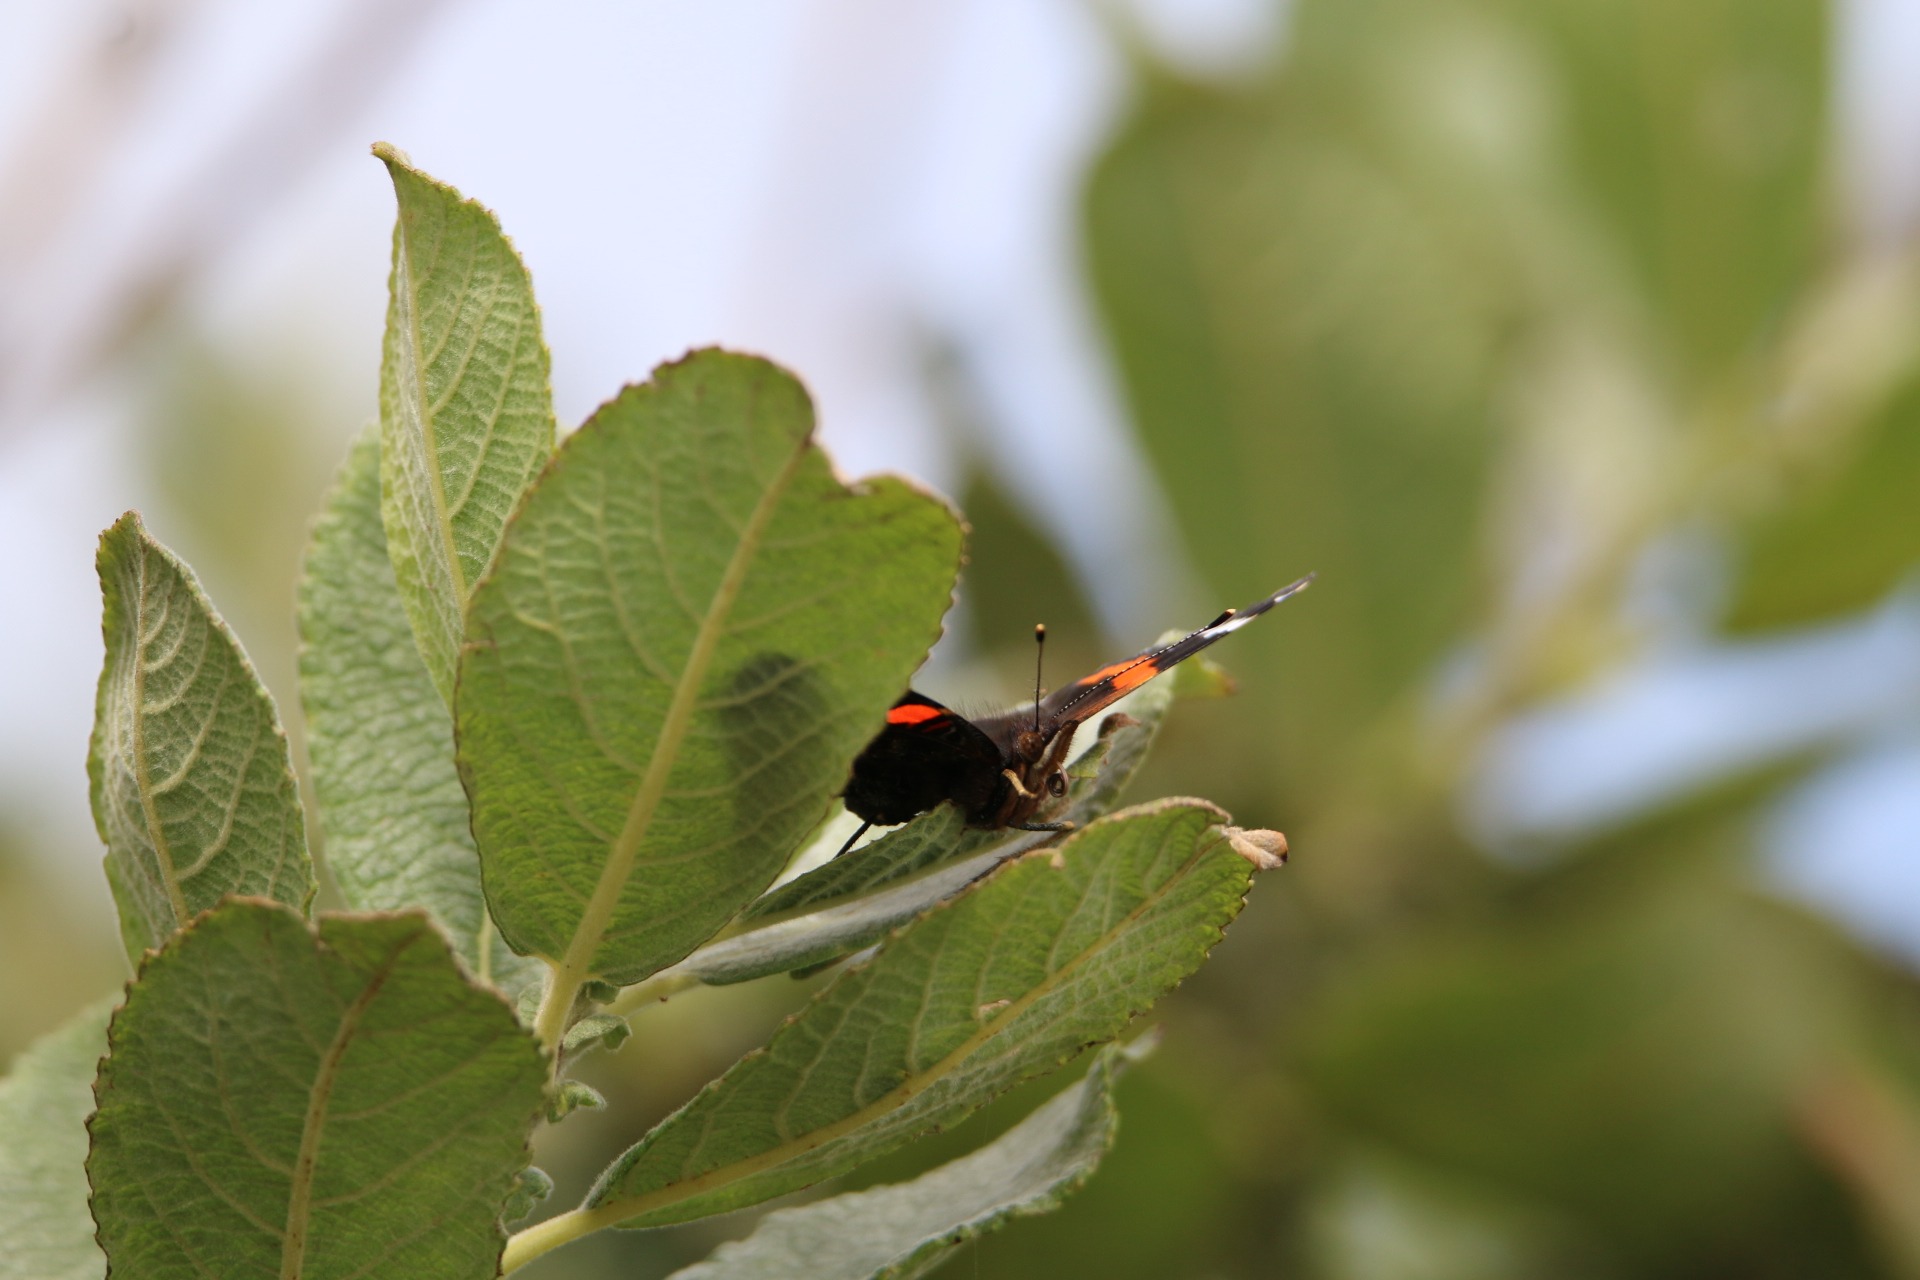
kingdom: Animalia
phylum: Arthropoda
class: Insecta
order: Lepidoptera
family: Nymphalidae
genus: Vanessa
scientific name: Vanessa atalanta
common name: Admiral
